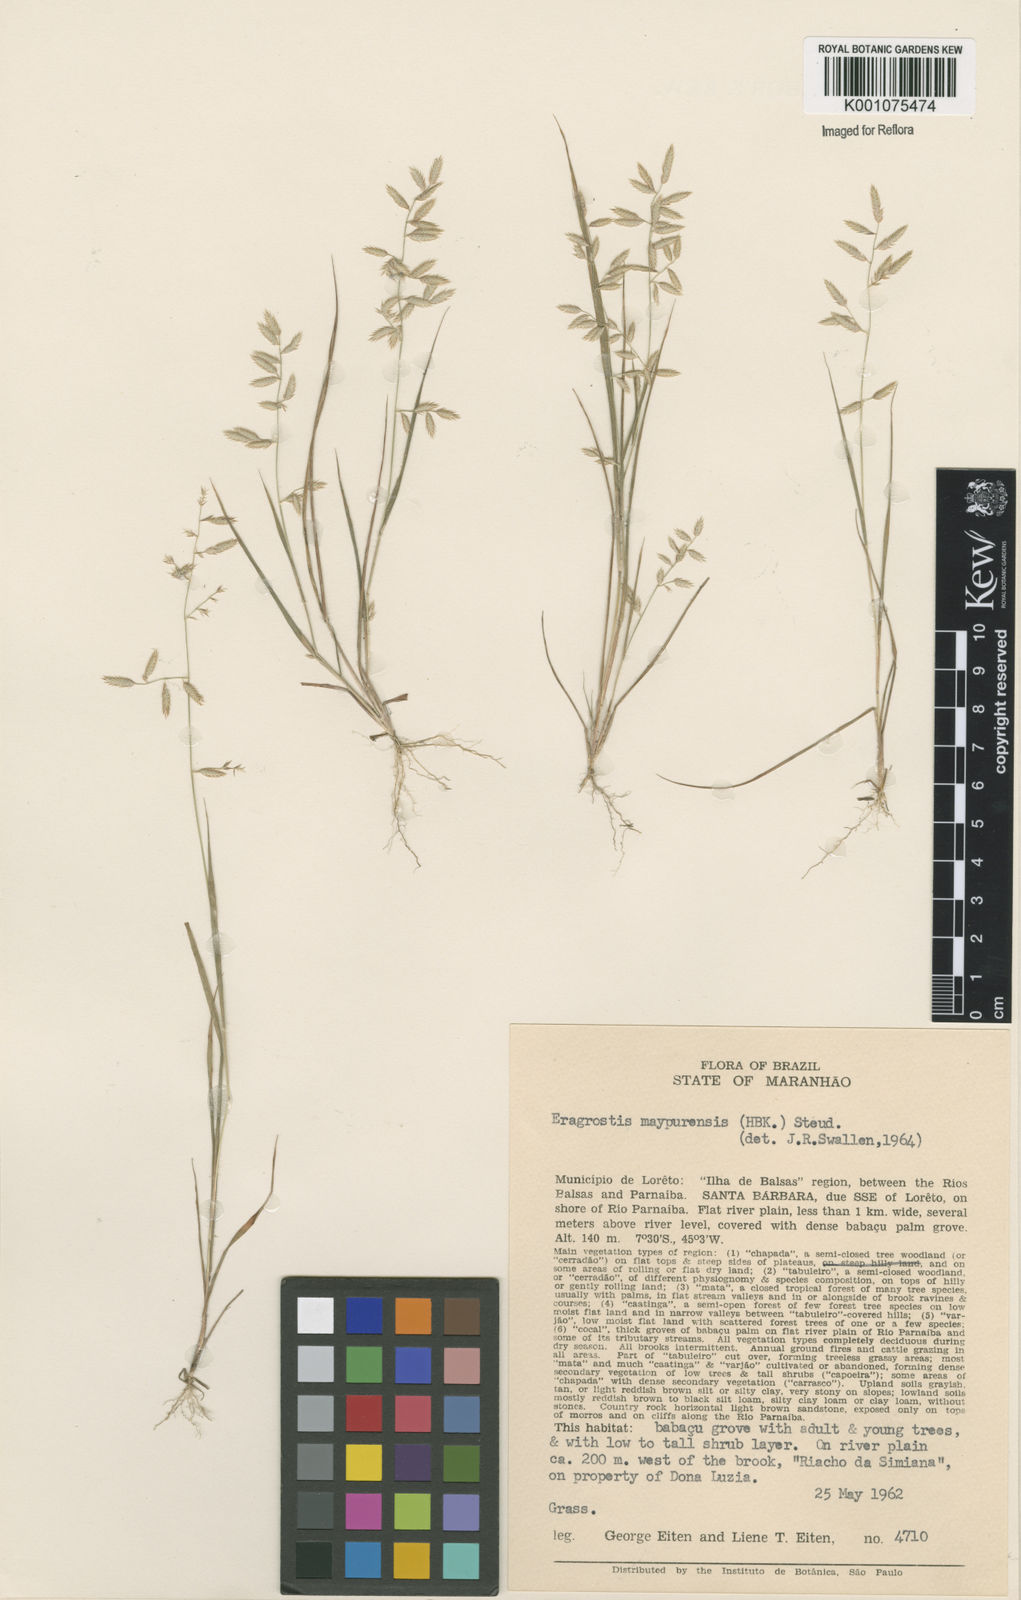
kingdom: Plantae
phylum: Tracheophyta
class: Liliopsida
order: Poales
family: Poaceae
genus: Eragrostis
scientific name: Eragrostis maypurensis
